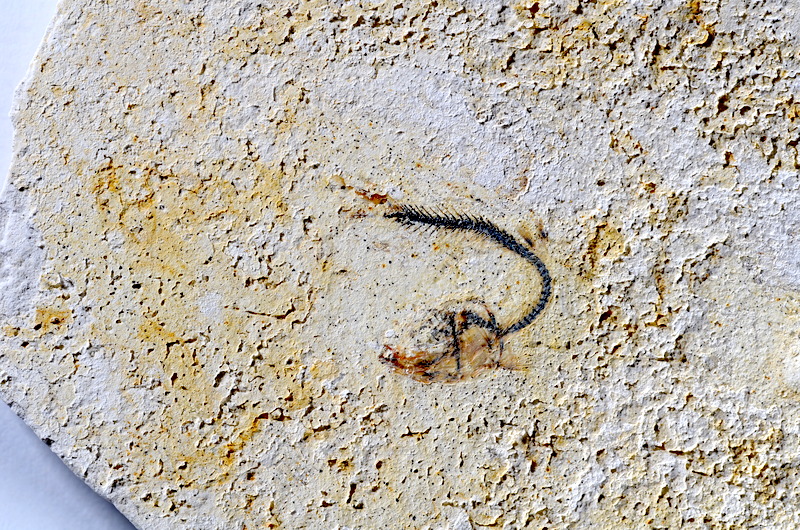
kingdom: Animalia
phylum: Chordata
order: Salmoniformes
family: Orthogonikleithridae
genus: Orthogonikleithrus
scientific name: Orthogonikleithrus hoelli
